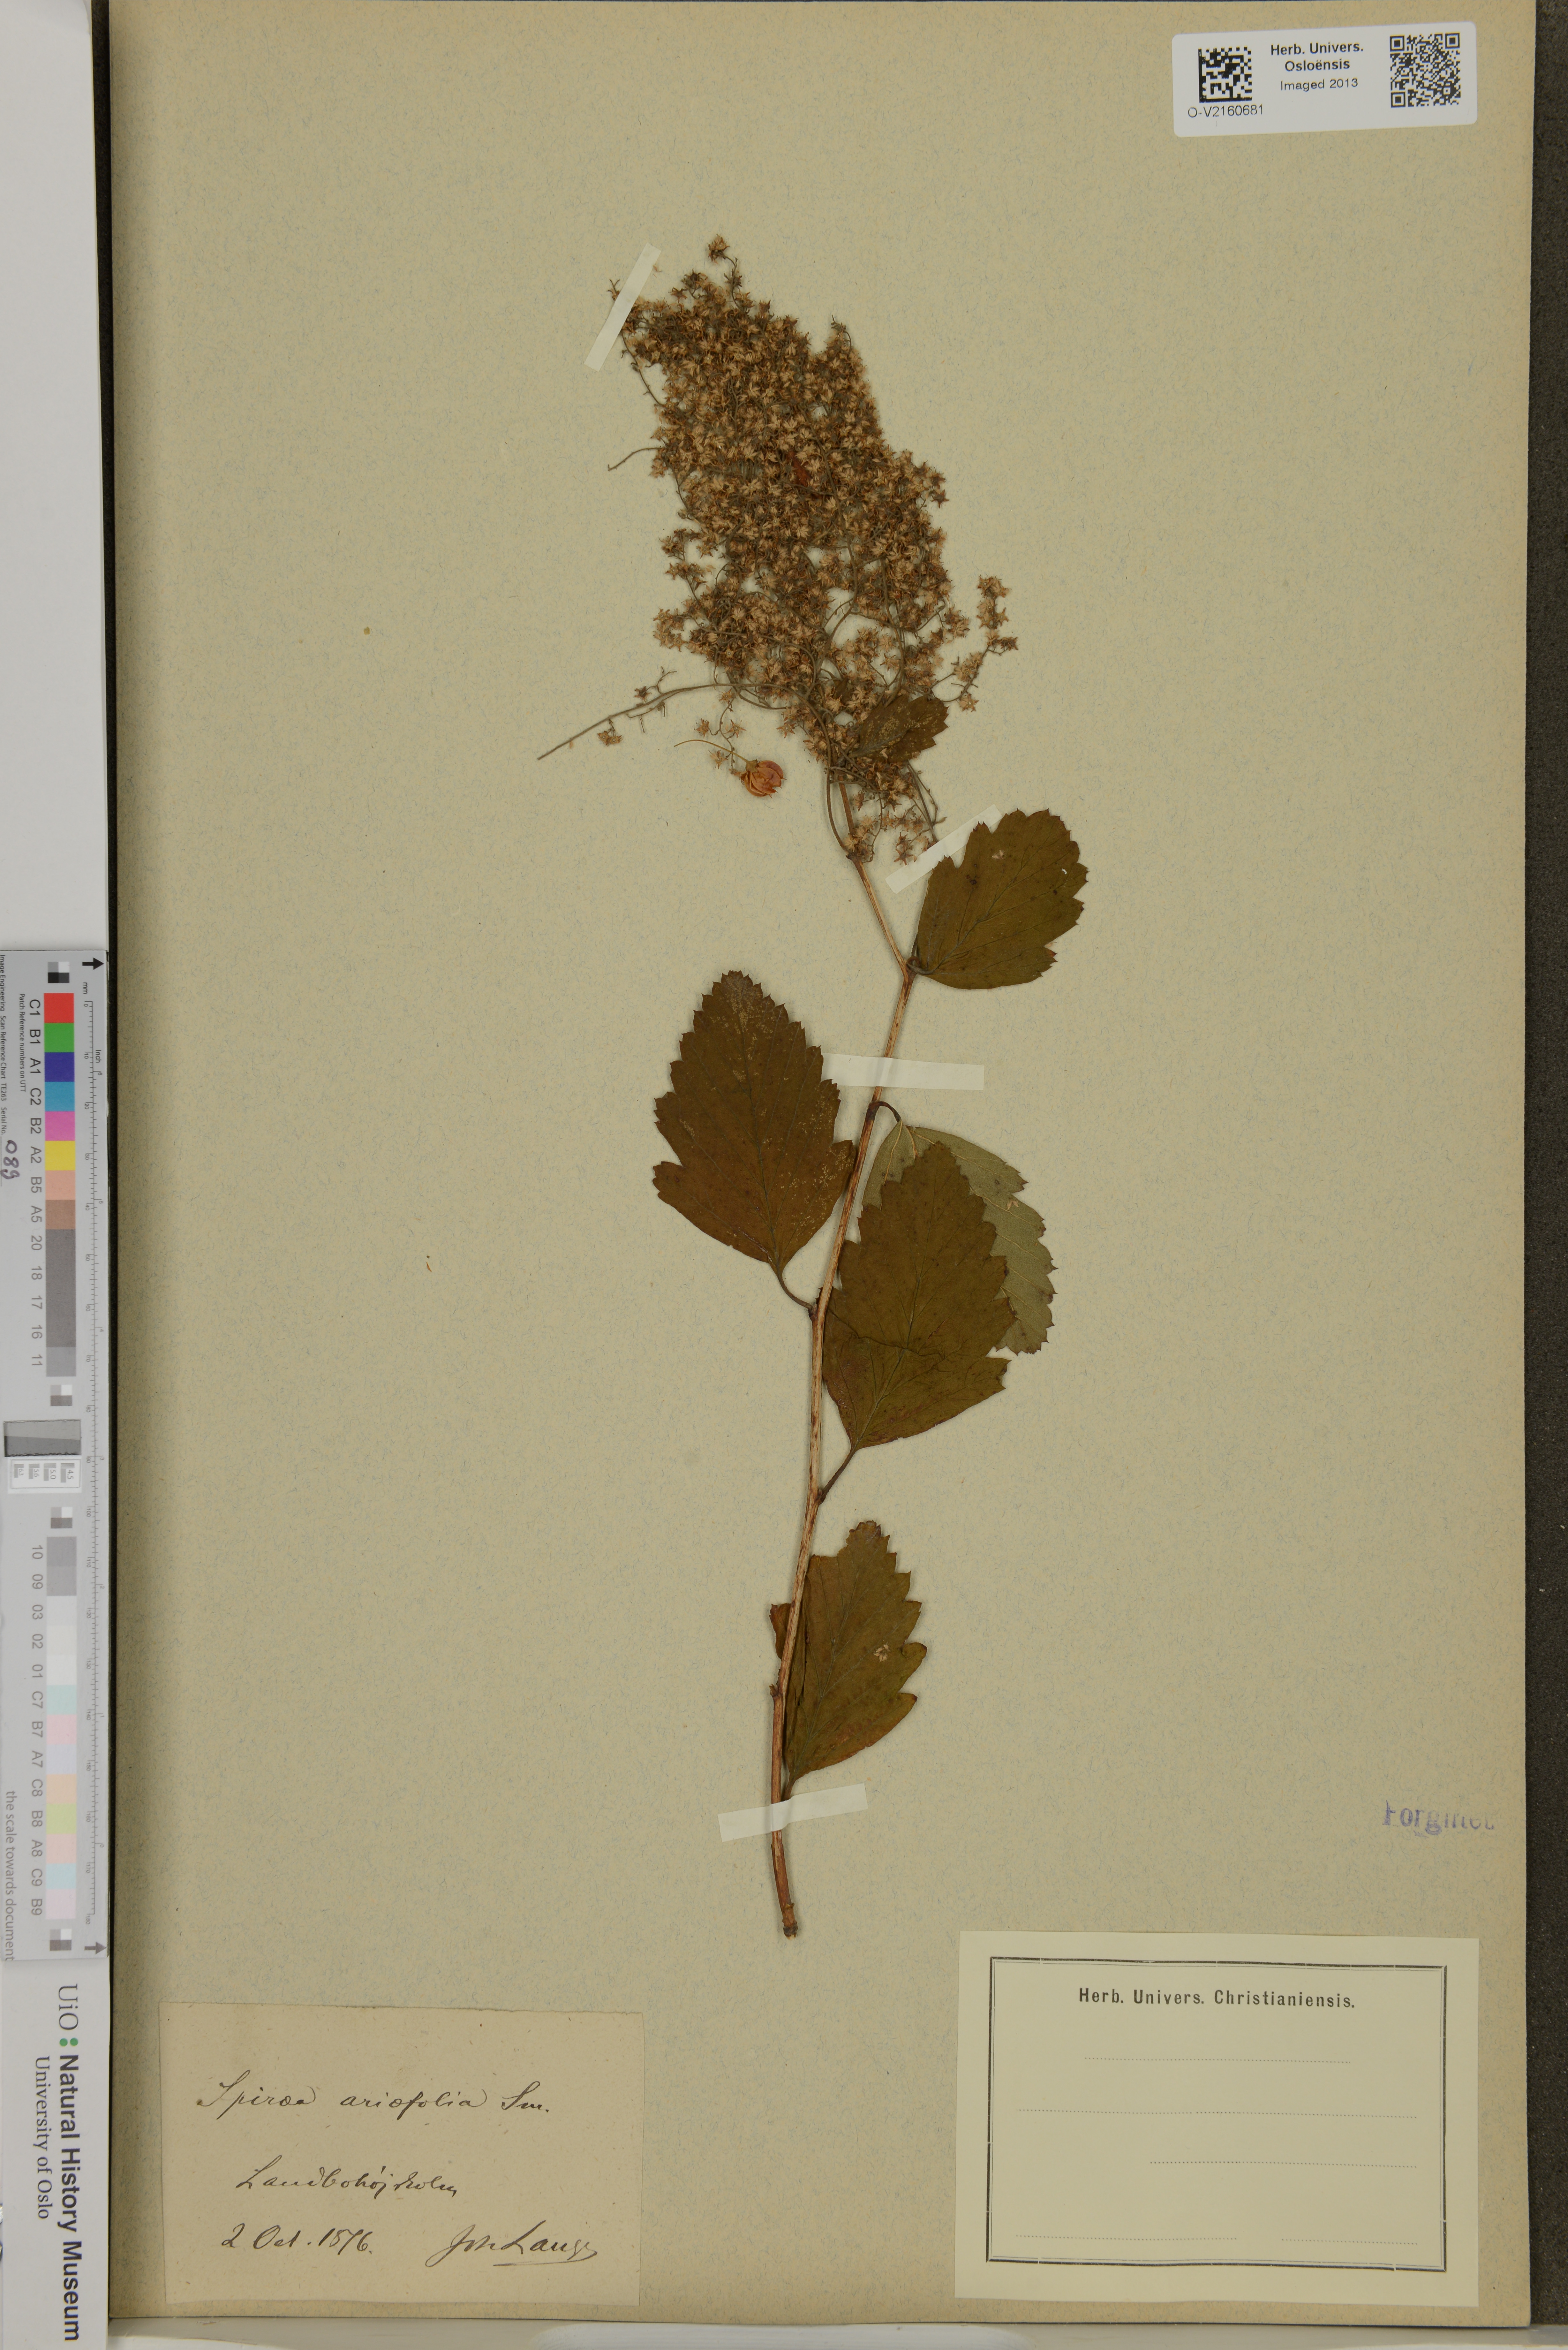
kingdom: Plantae
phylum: Tracheophyta
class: Magnoliopsida
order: Rosales
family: Rosaceae
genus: Holodiscus
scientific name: Holodiscus discolor
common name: Oceanspray
